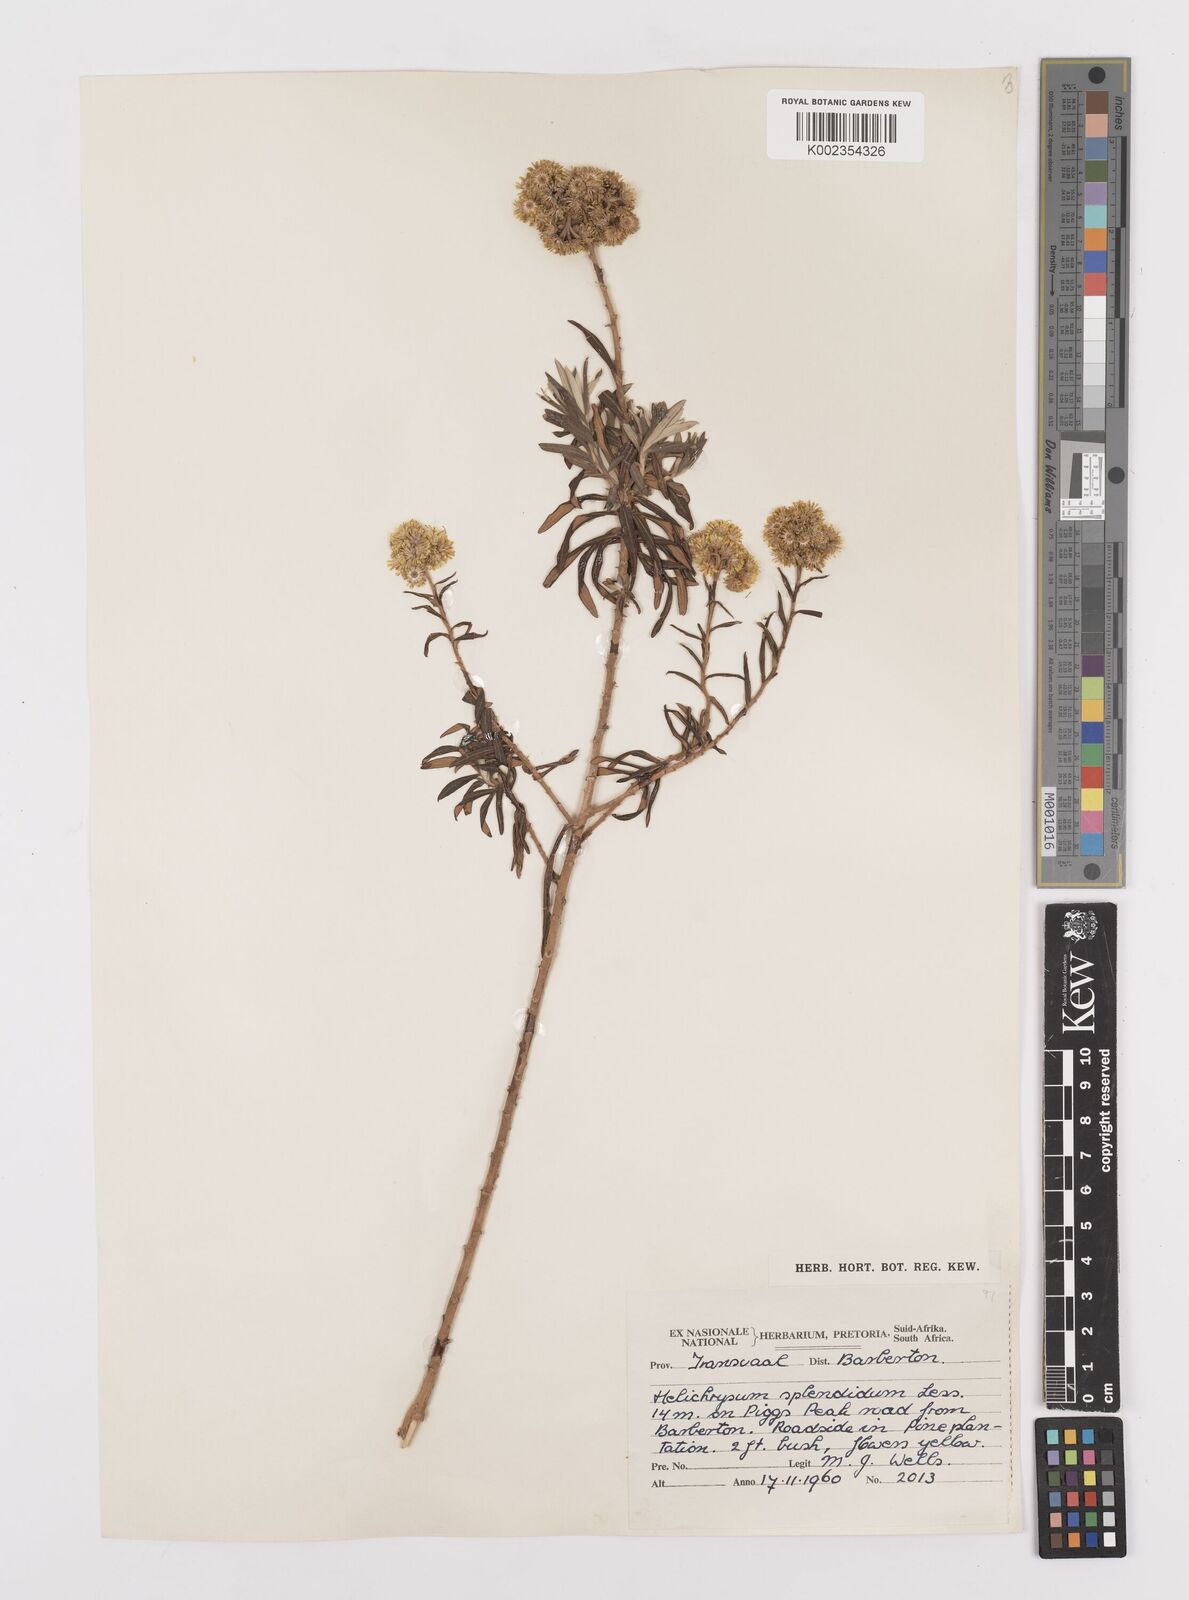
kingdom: Plantae
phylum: Tracheophyta
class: Magnoliopsida
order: Asterales
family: Asteraceae
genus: Helichrysum
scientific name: Helichrysum splendidum
